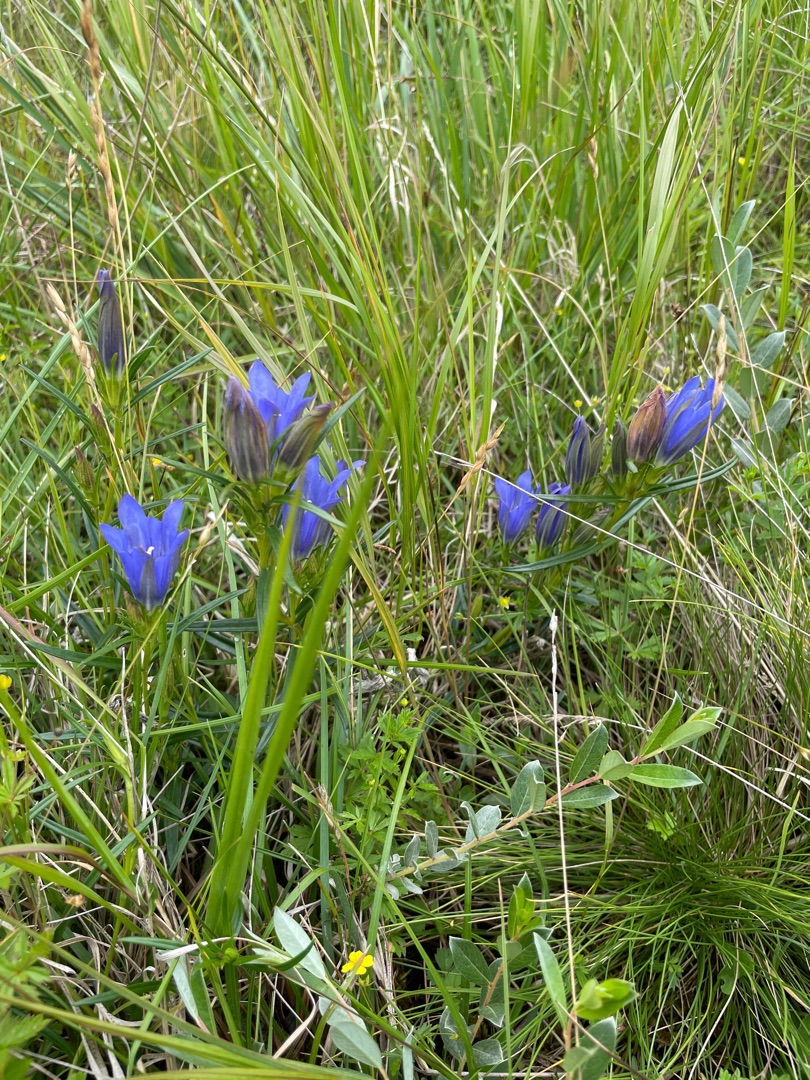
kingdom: Plantae
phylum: Tracheophyta
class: Magnoliopsida
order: Gentianales
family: Gentianaceae
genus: Gentiana
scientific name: Gentiana pneumonanthe
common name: Klokke-ensian
